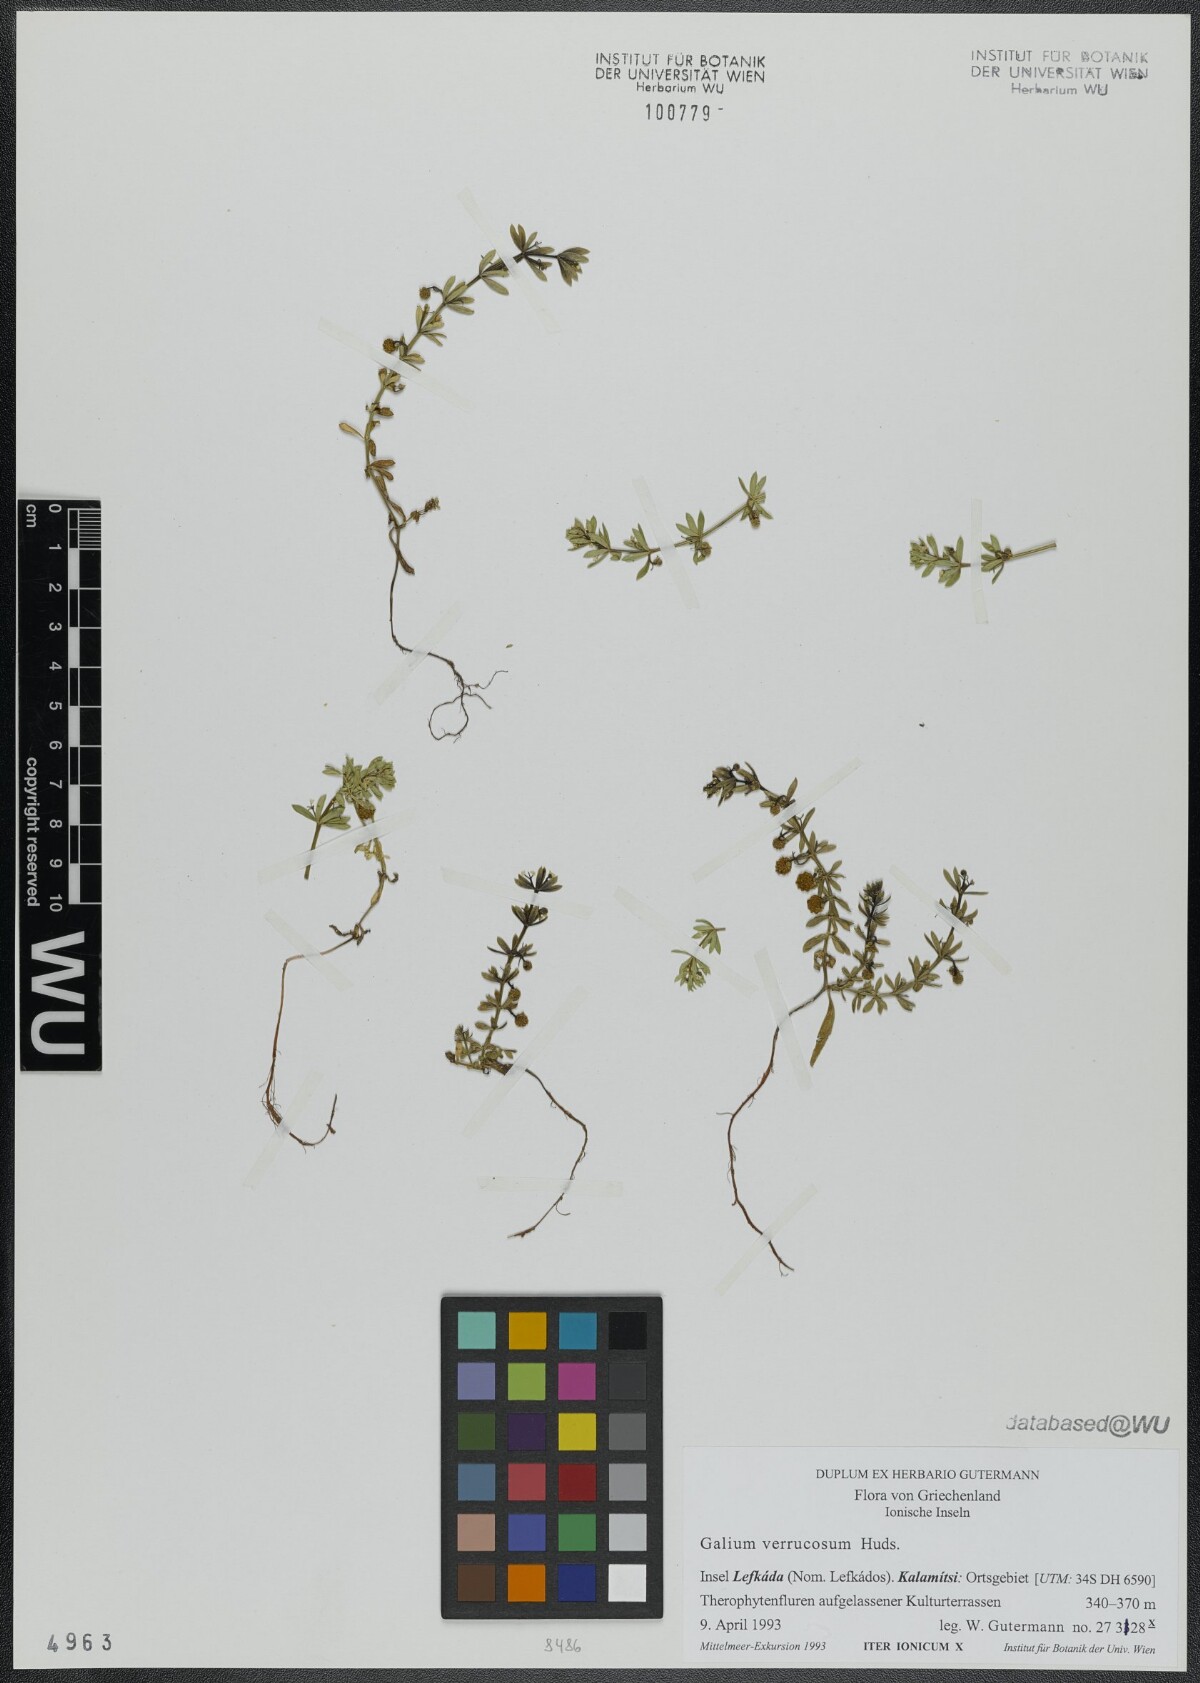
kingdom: Plantae
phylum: Tracheophyta
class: Magnoliopsida
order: Gentianales
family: Rubiaceae
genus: Galium
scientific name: Galium verrucosum
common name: Warty bedstraw
